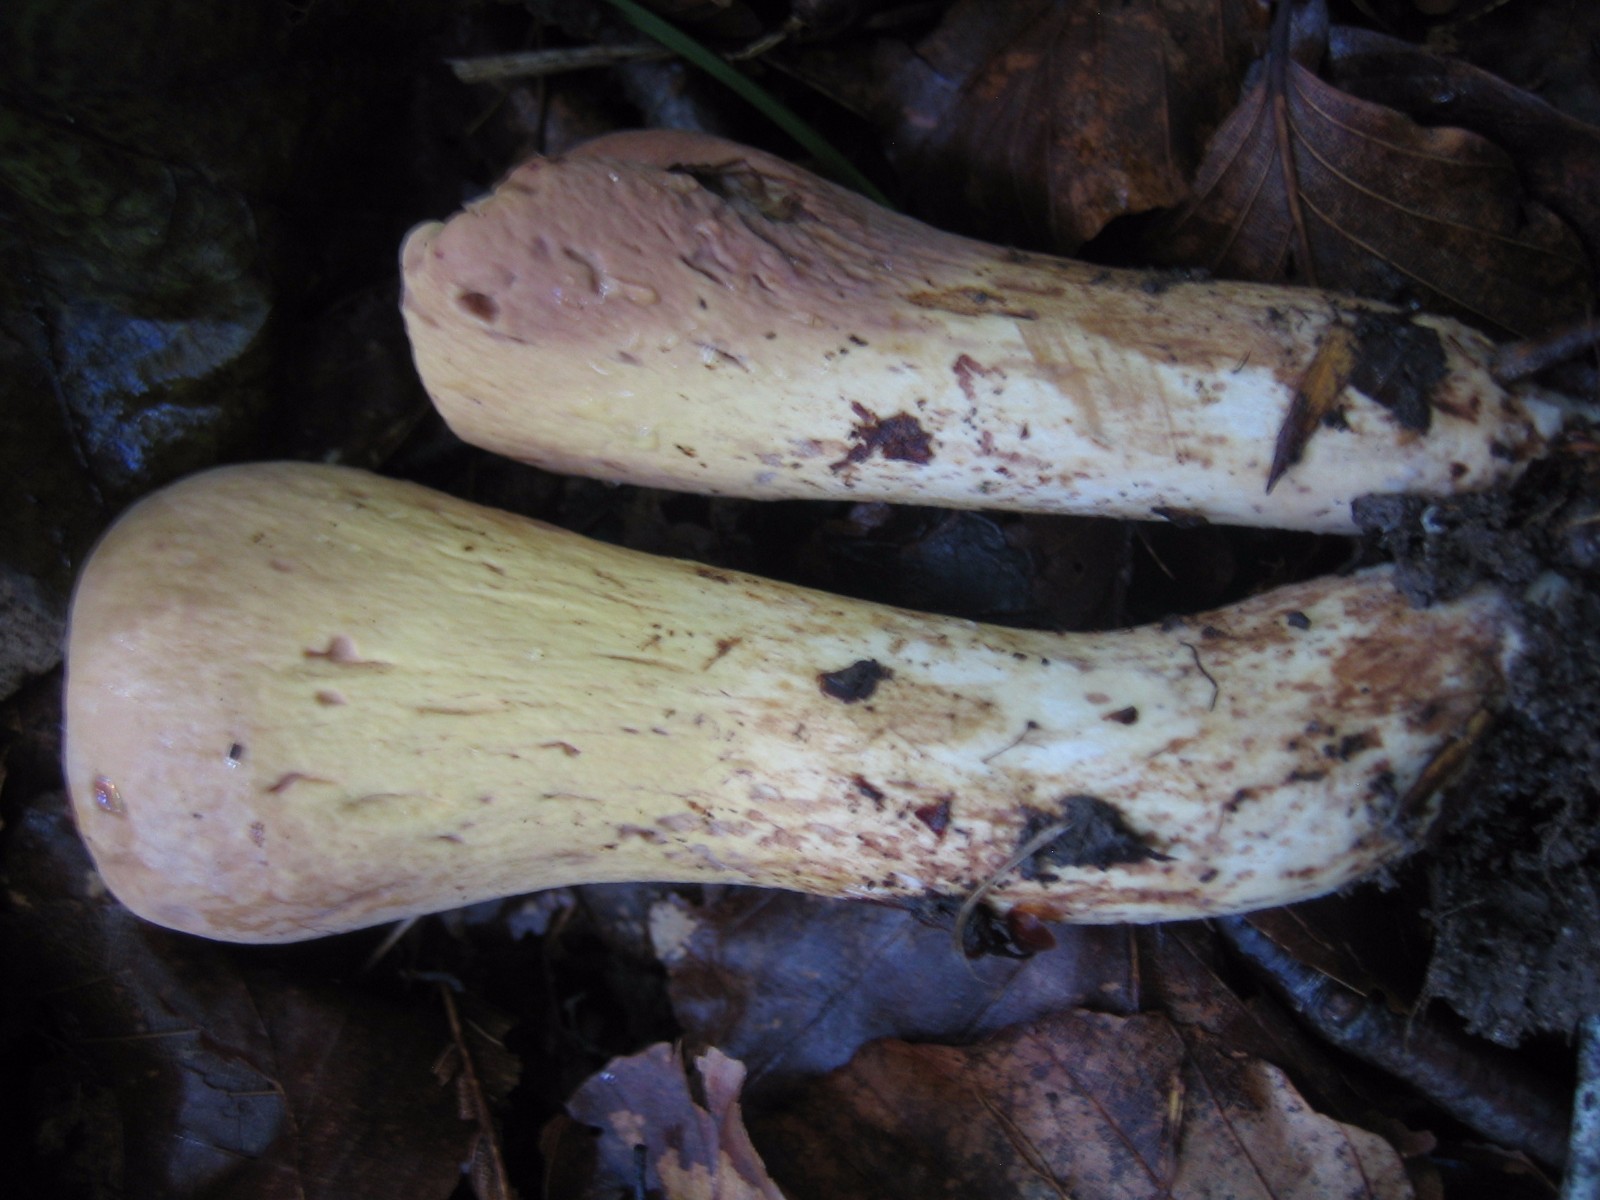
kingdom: Fungi
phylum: Basidiomycota
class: Agaricomycetes
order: Gomphales
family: Clavariadelphaceae
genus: Clavariadelphus
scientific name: Clavariadelphus pistillaris
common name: herkules-kæmpekølle
